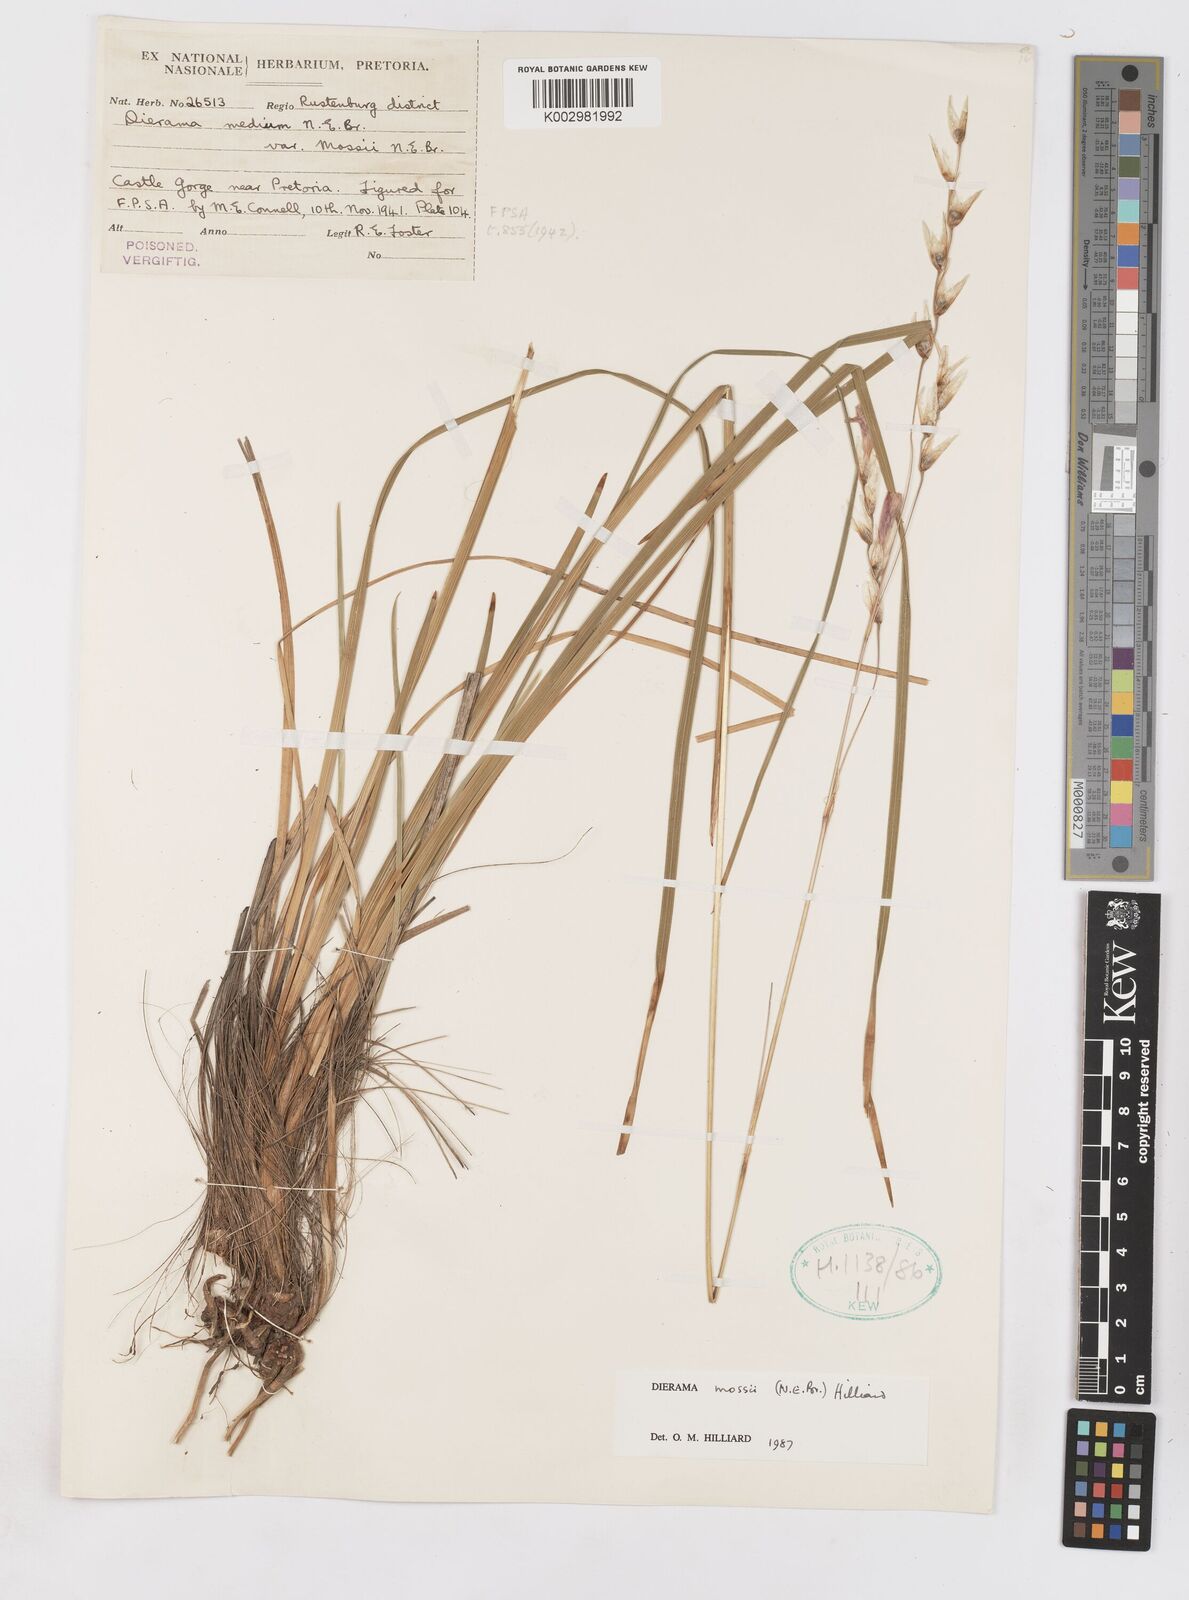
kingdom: Plantae
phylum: Tracheophyta
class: Liliopsida
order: Asparagales
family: Iridaceae
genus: Dierama
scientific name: Dierama mossii
